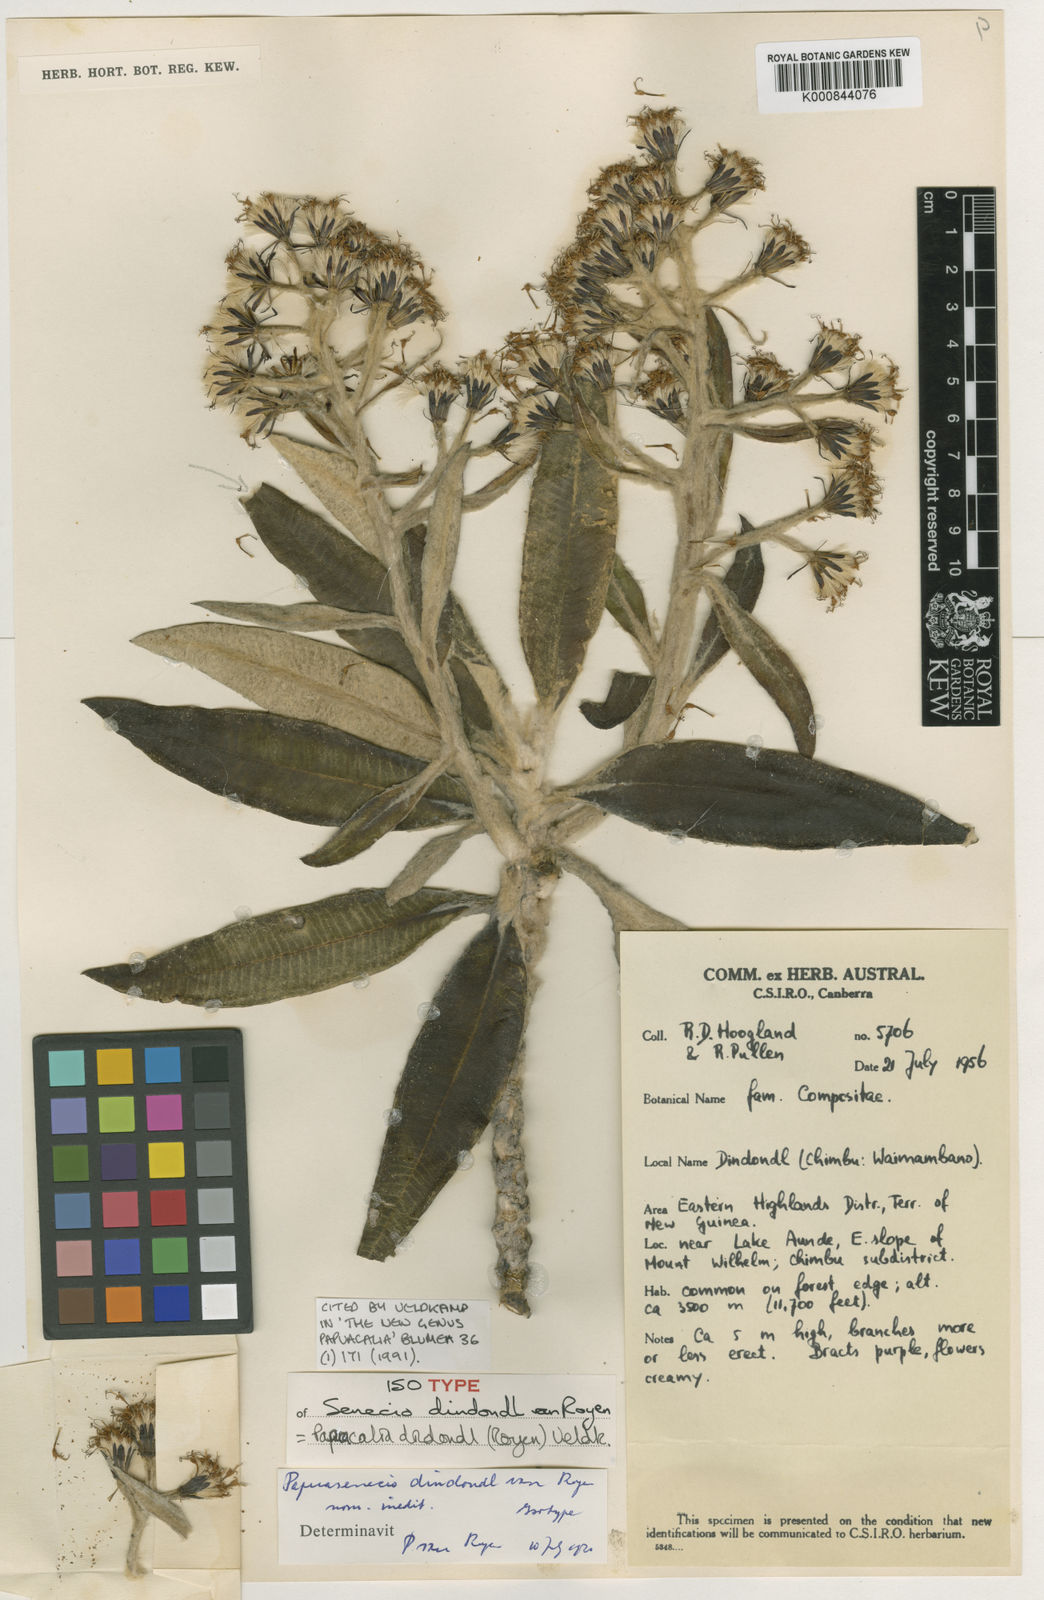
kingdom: Plantae
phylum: Tracheophyta
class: Magnoliopsida
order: Asterales
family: Asteraceae
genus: Papuacalia
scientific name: Papuacalia dindondl
